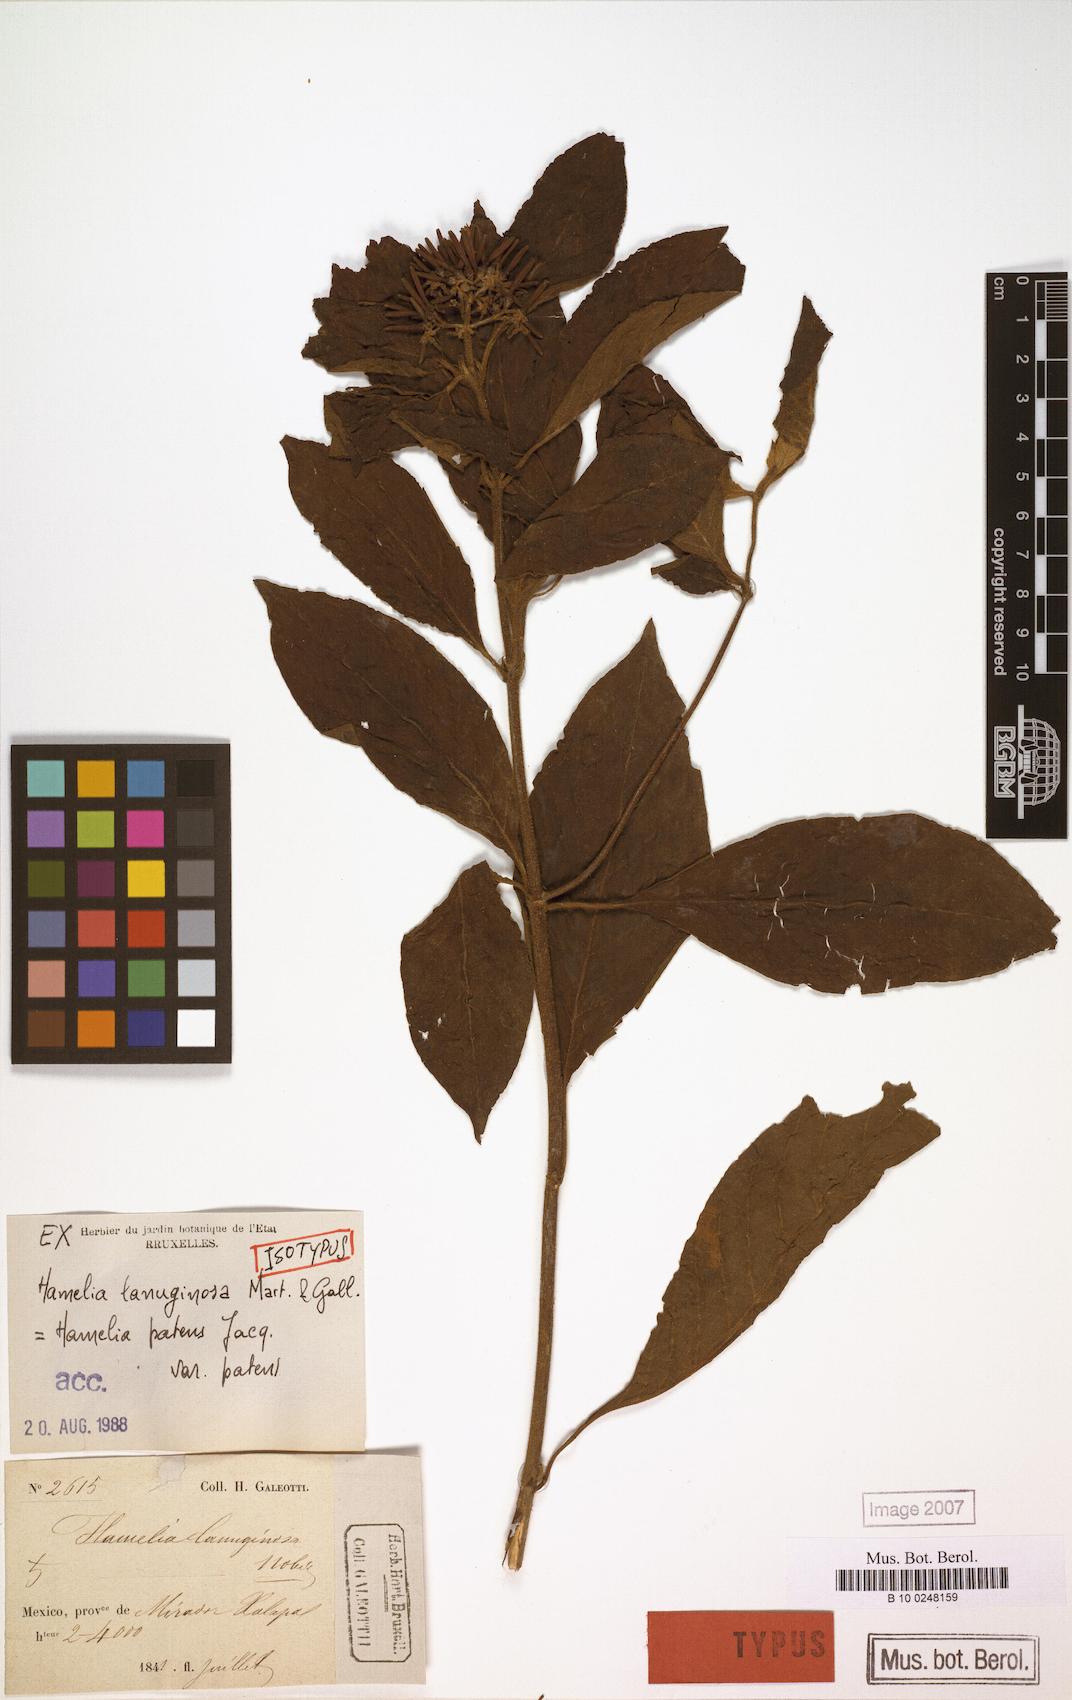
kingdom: Plantae
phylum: Tracheophyta
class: Magnoliopsida
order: Gentianales
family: Rubiaceae
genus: Hamelia
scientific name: Hamelia patens
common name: Redhead
